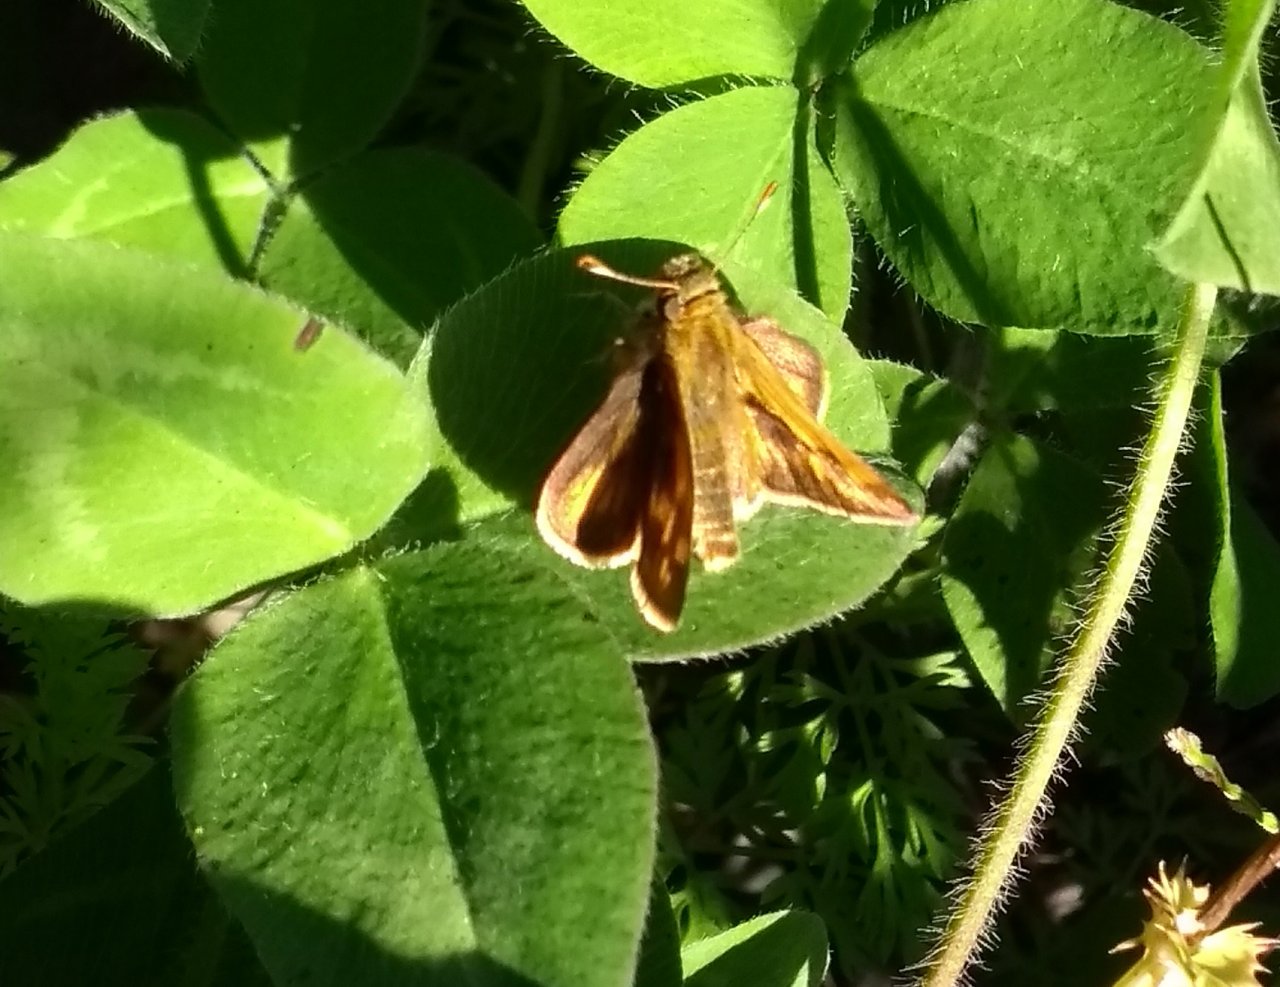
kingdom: Animalia
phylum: Arthropoda
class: Insecta
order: Lepidoptera
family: Hesperiidae
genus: Polites
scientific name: Polites coras
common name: Peck's Skipper
